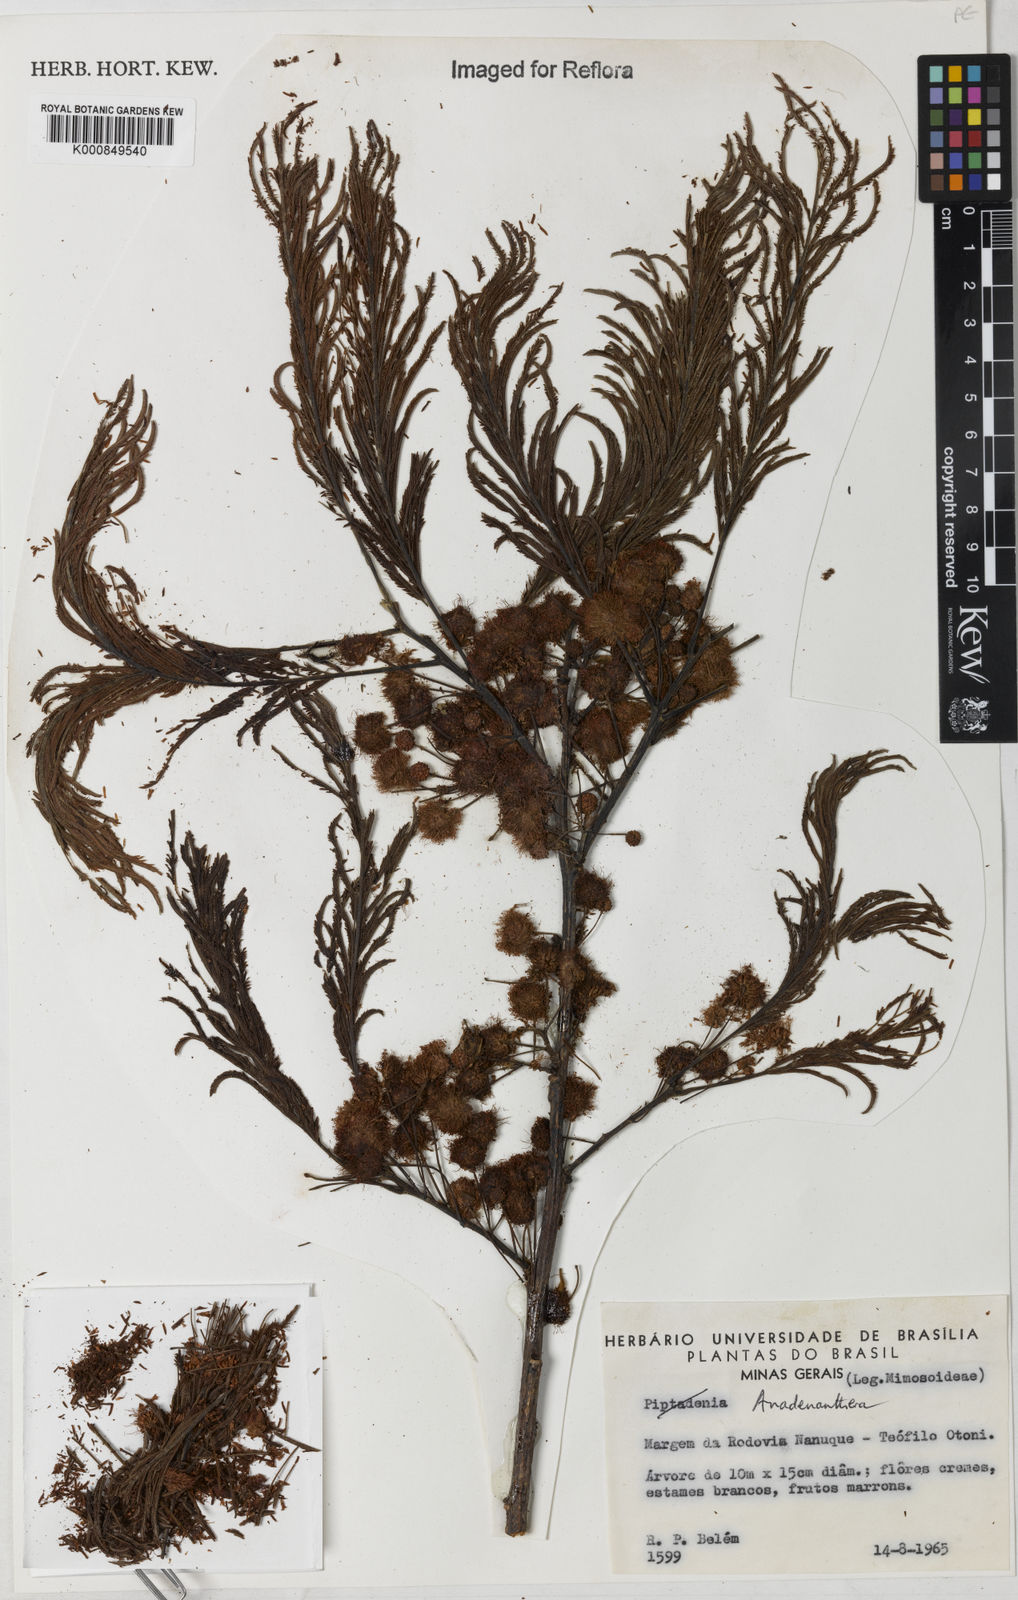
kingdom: Plantae
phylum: Tracheophyta
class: Magnoliopsida
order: Fabales
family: Fabaceae
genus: Anadenanthera
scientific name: Anadenanthera
